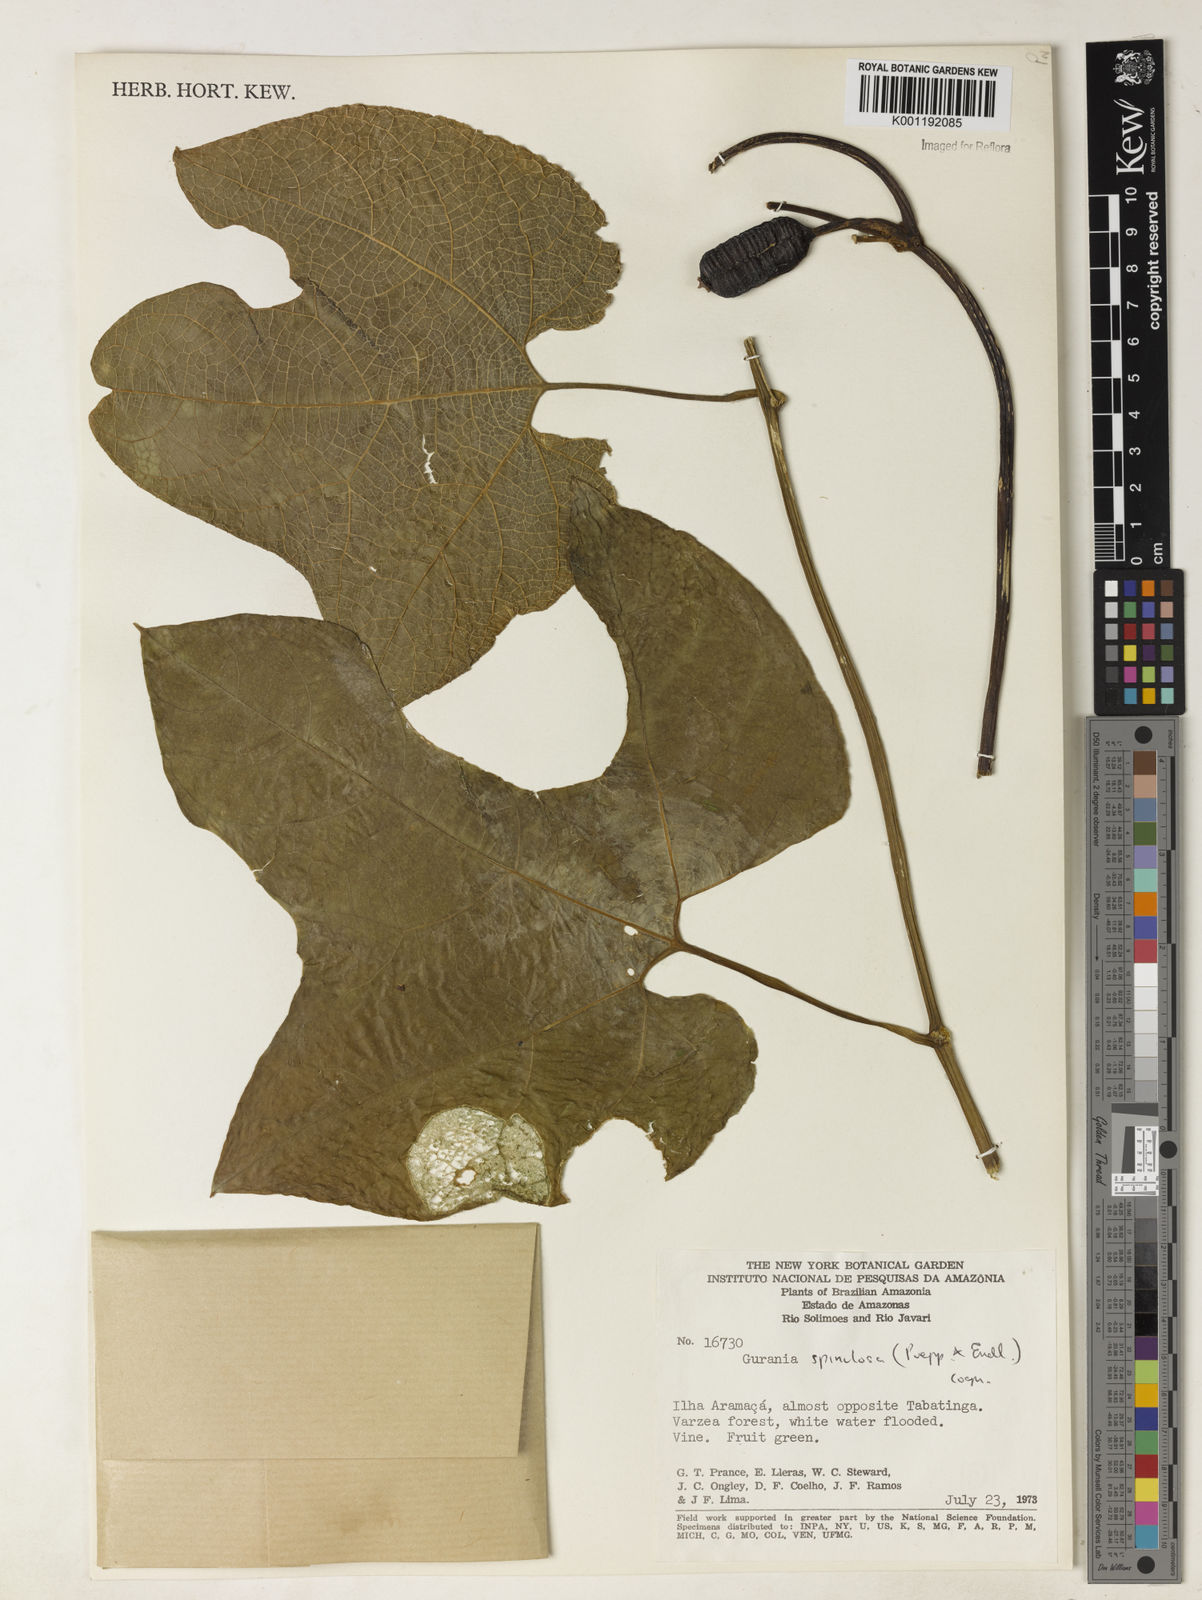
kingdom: Plantae
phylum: Tracheophyta
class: Magnoliopsida
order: Cucurbitales
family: Cucurbitaceae
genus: Gurania
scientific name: Gurania lobata
